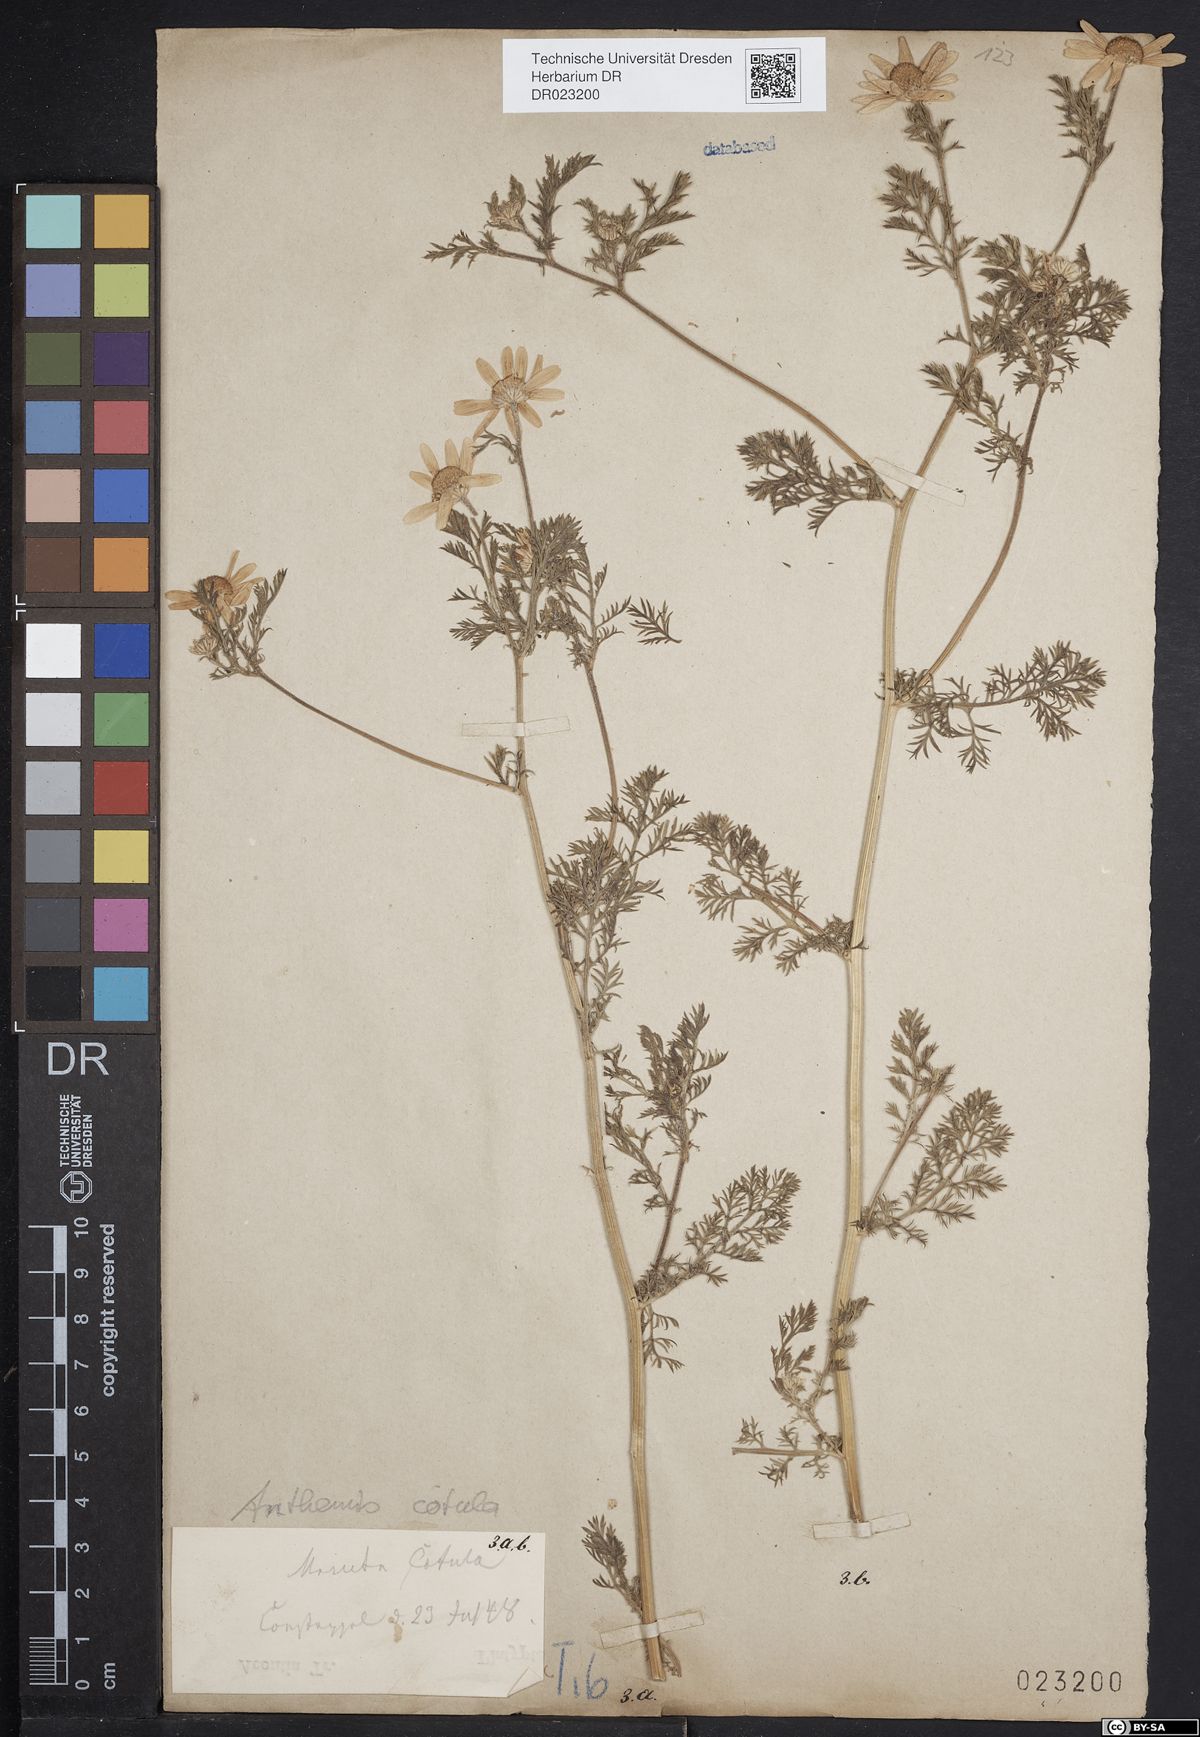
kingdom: Plantae
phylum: Tracheophyta
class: Magnoliopsida
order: Asterales
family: Asteraceae
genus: Anthemis
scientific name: Anthemis cotula
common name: Stinking chamomile
